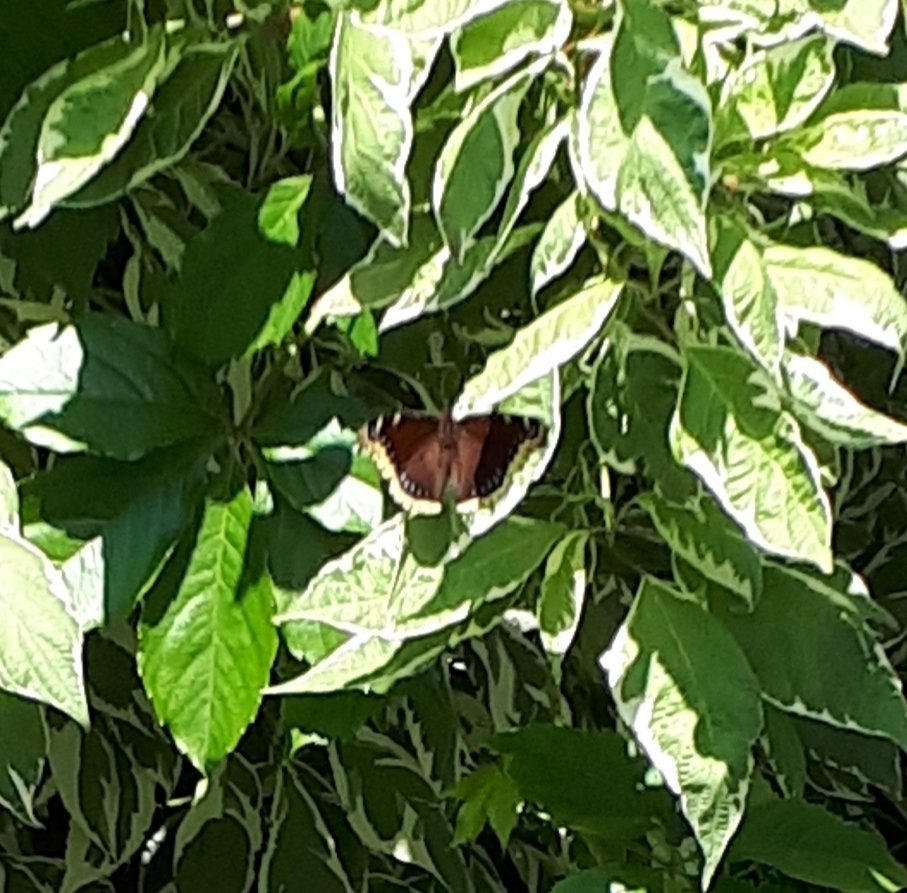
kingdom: Animalia
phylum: Arthropoda
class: Insecta
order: Lepidoptera
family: Nymphalidae
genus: Nymphalis
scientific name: Nymphalis antiopa
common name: Mourning Cloak
